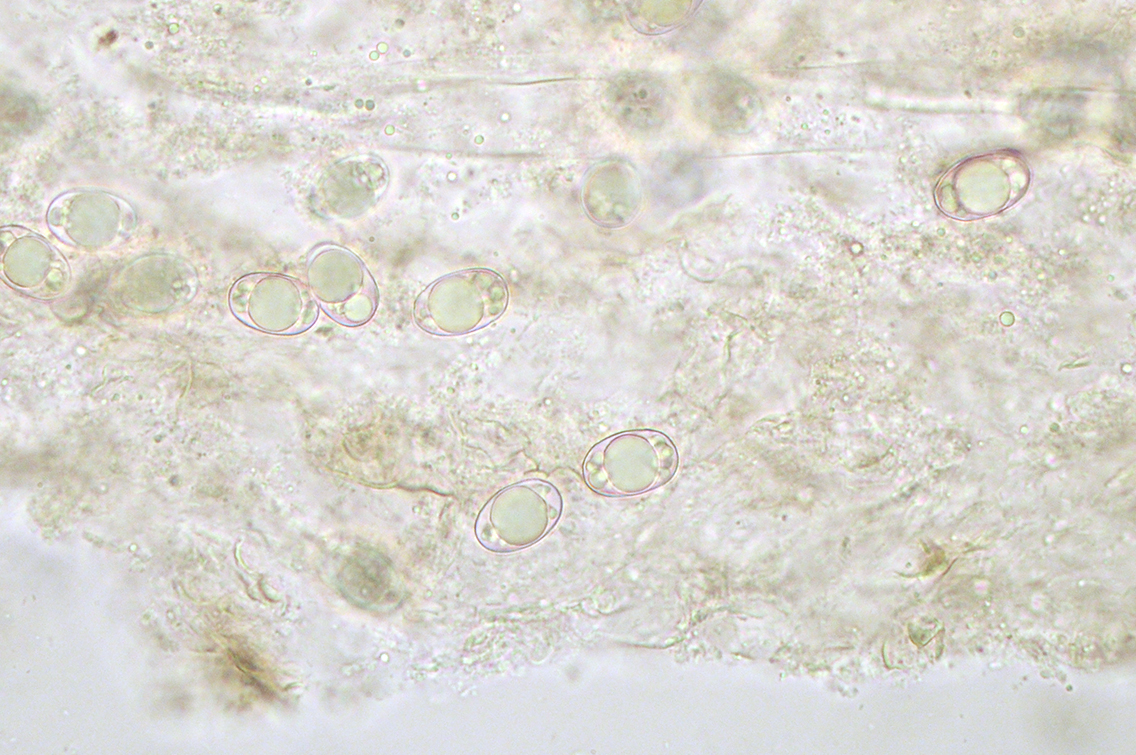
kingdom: Fungi
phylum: Ascomycota
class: Pezizomycetes
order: Pezizales
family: Helvellaceae
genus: Helvella
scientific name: Helvella fibrosa
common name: dunstokket foldhat
